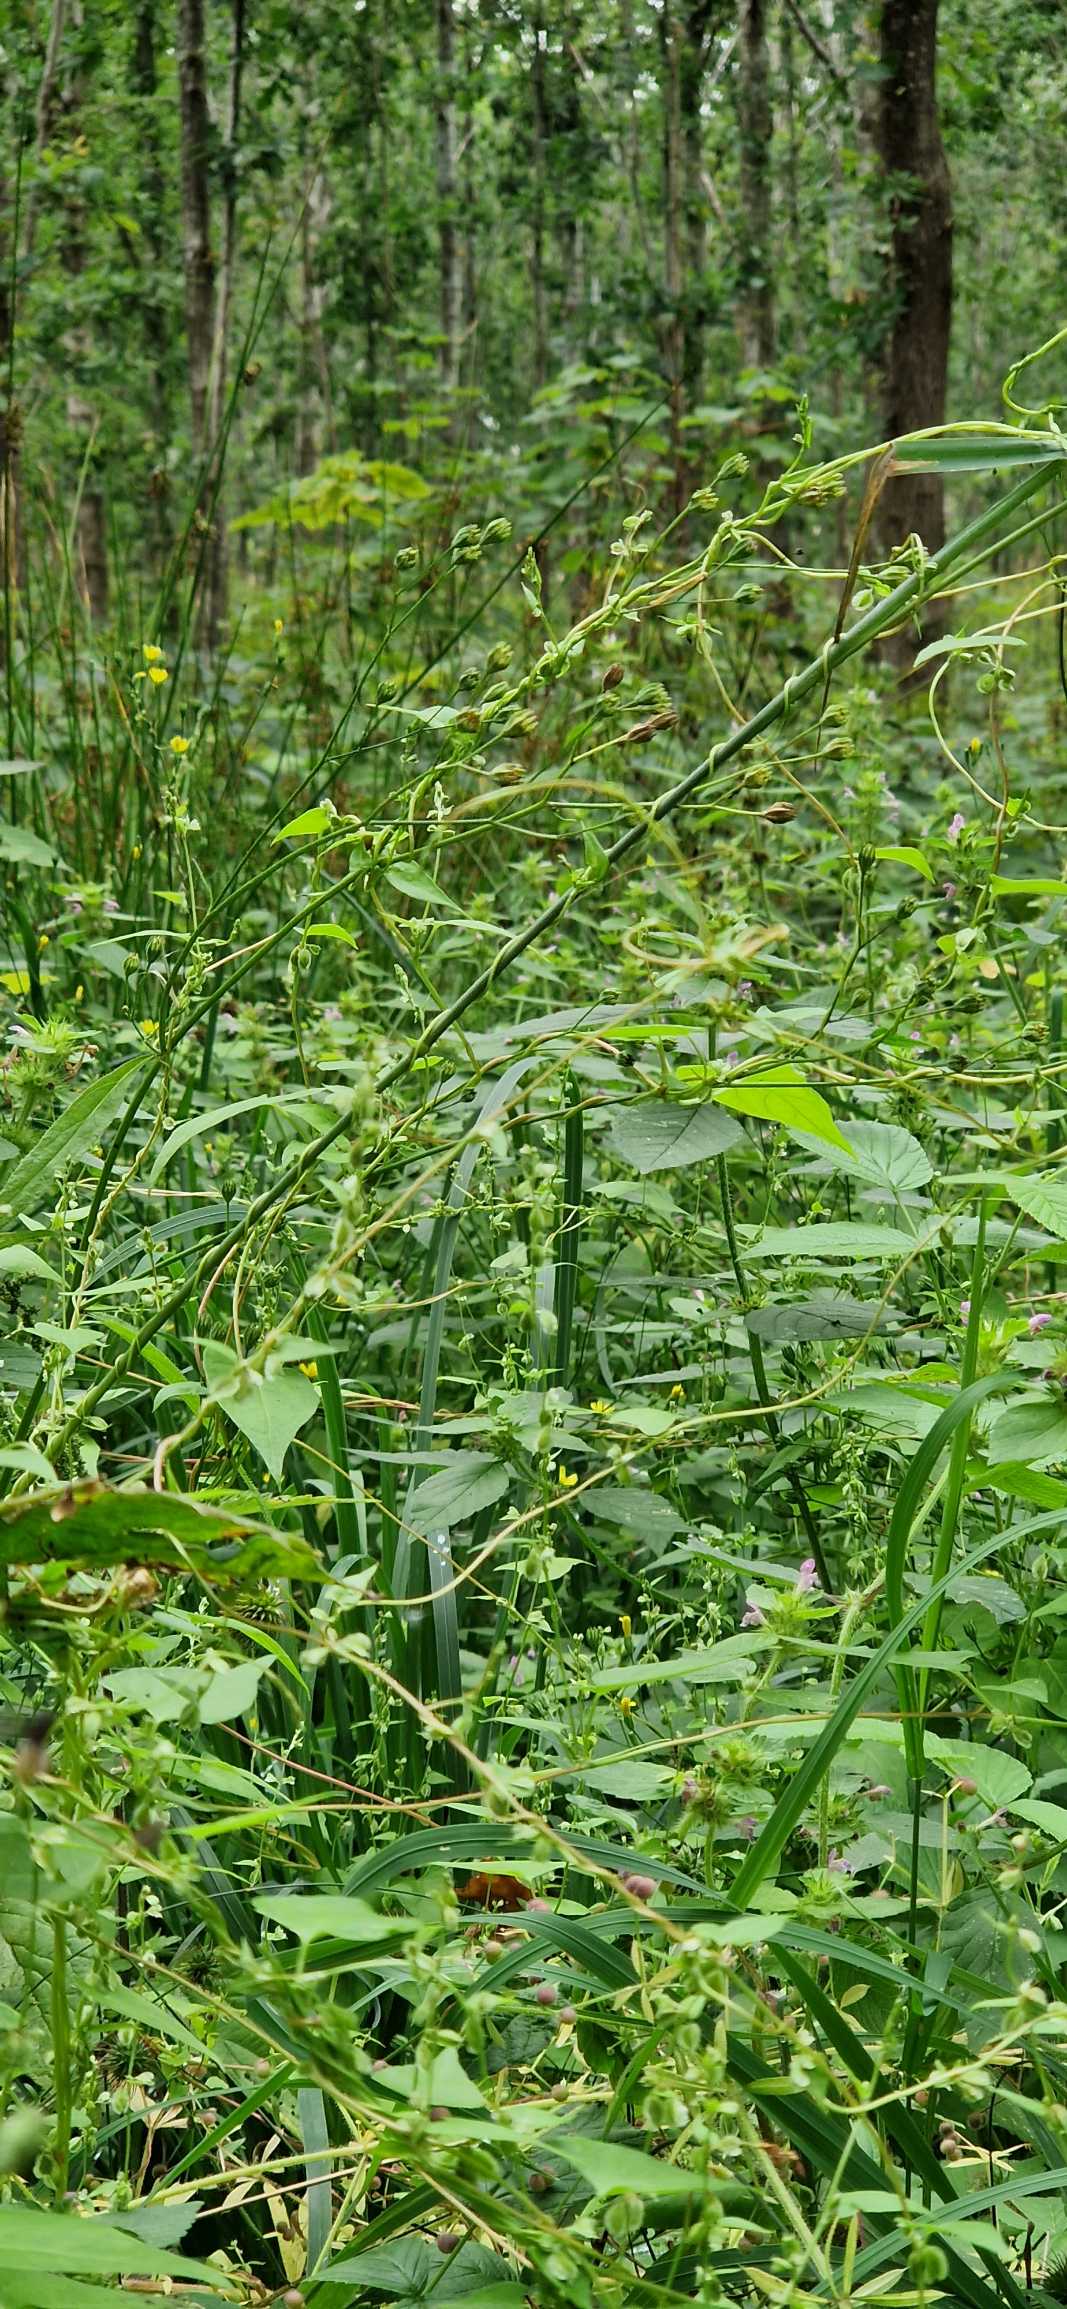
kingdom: Plantae
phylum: Tracheophyta
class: Magnoliopsida
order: Caryophyllales
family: Polygonaceae
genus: Fallopia
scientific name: Fallopia dumetorum
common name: Vinge-pileurt
